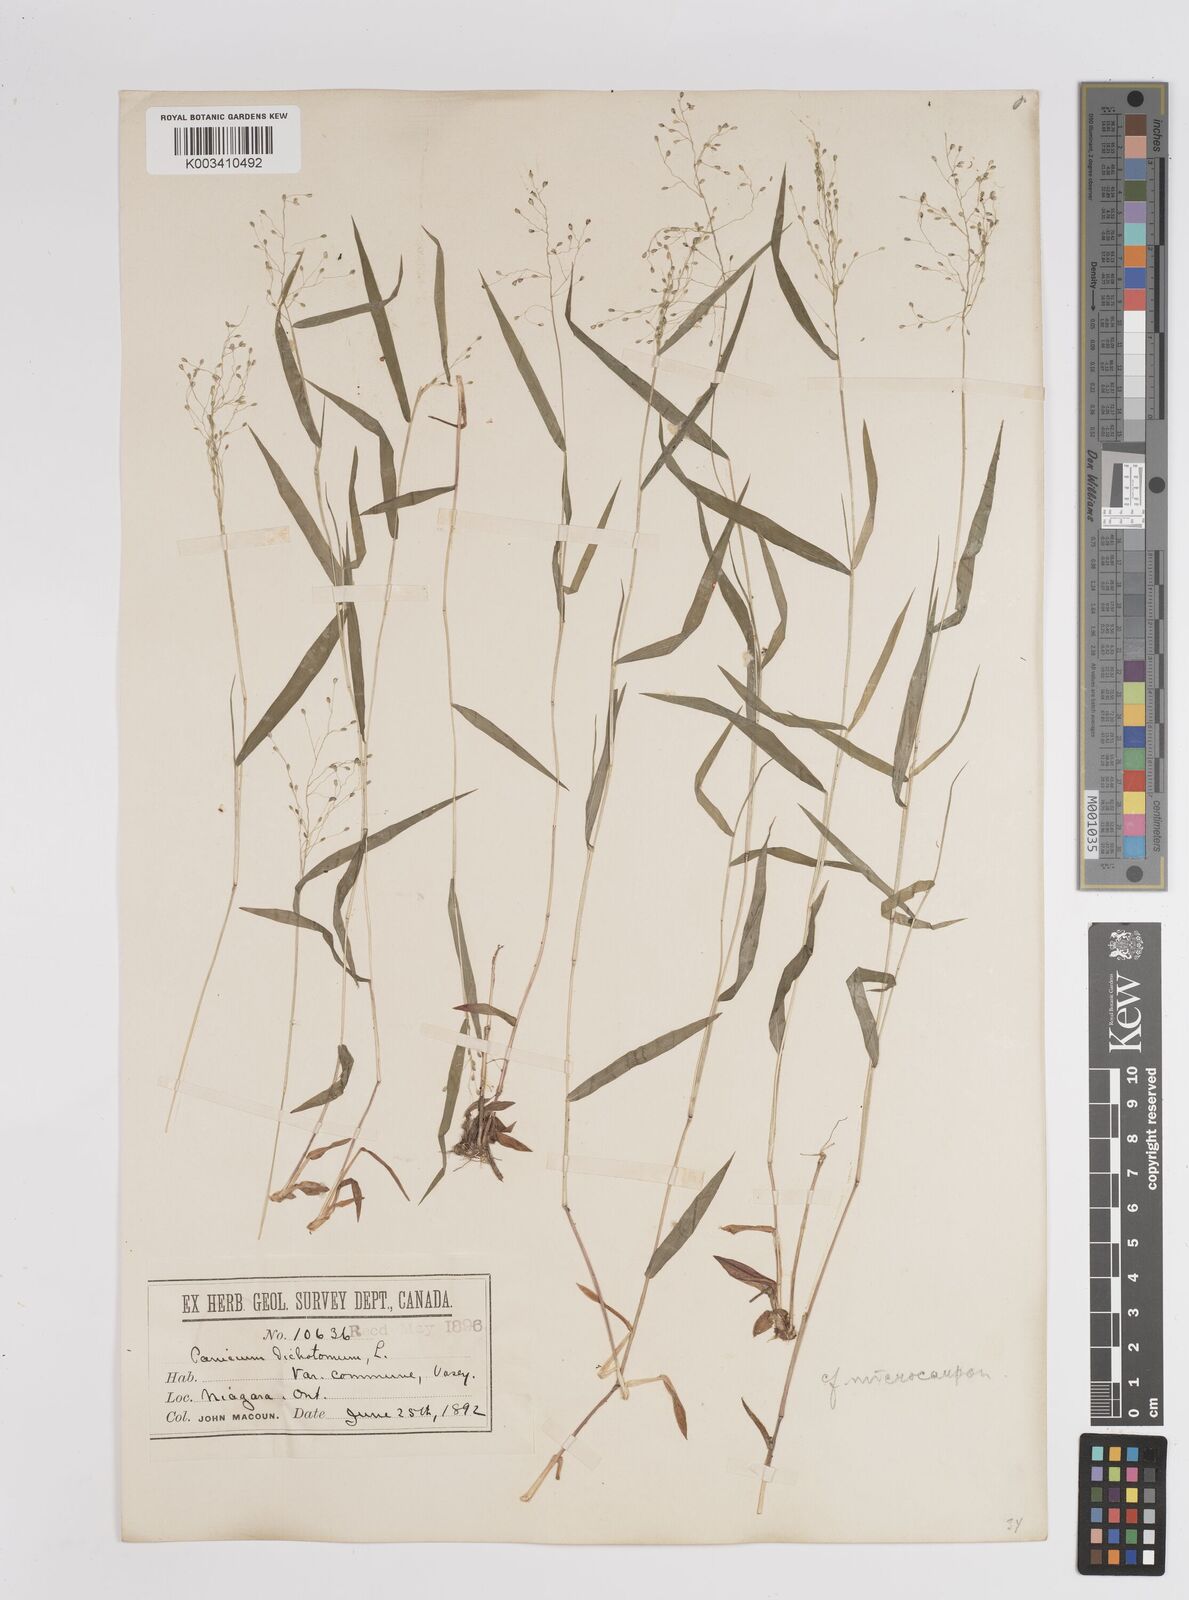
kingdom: Plantae
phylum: Tracheophyta
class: Liliopsida
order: Poales
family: Poaceae
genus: Dichanthelium
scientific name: Dichanthelium polyanthes
